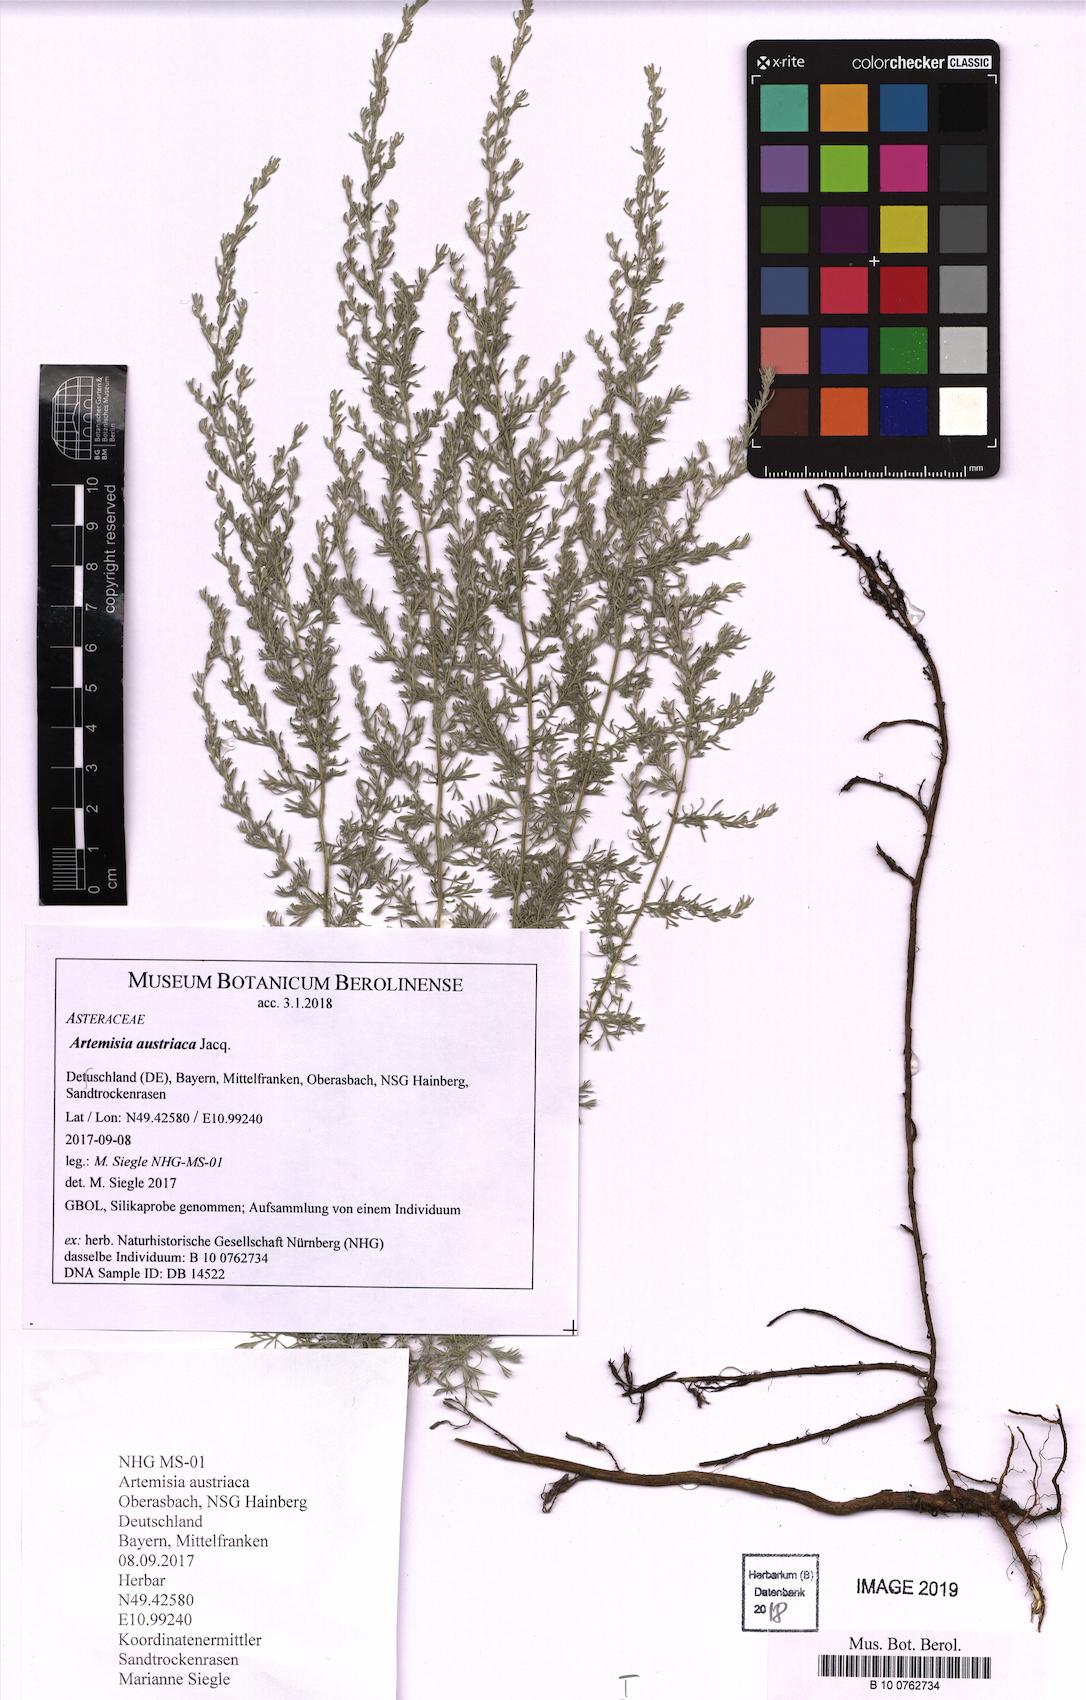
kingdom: Plantae
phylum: Tracheophyta
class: Magnoliopsida
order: Asterales
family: Asteraceae
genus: Artemisia
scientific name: Artemisia repens
